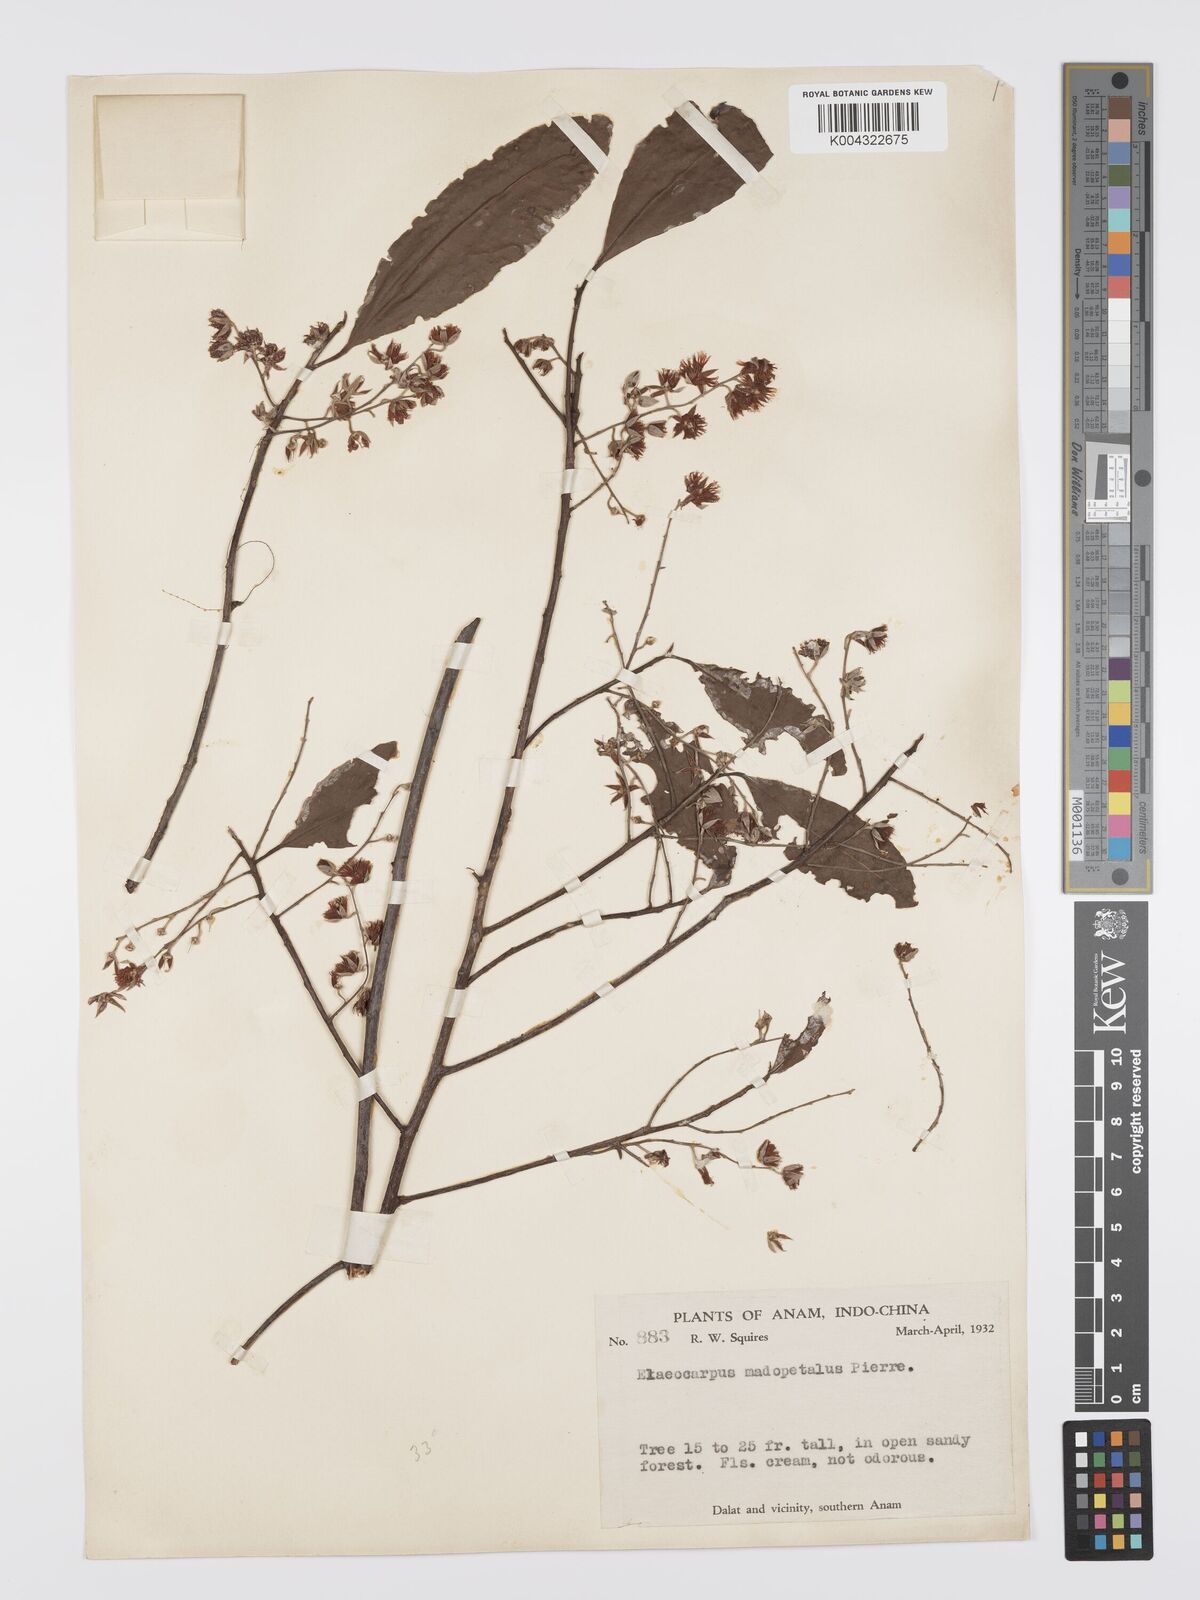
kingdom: Plantae
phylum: Tracheophyta
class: Magnoliopsida
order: Oxalidales
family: Elaeocarpaceae
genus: Elaeocarpus
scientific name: Elaeocarpus hygrophilus
